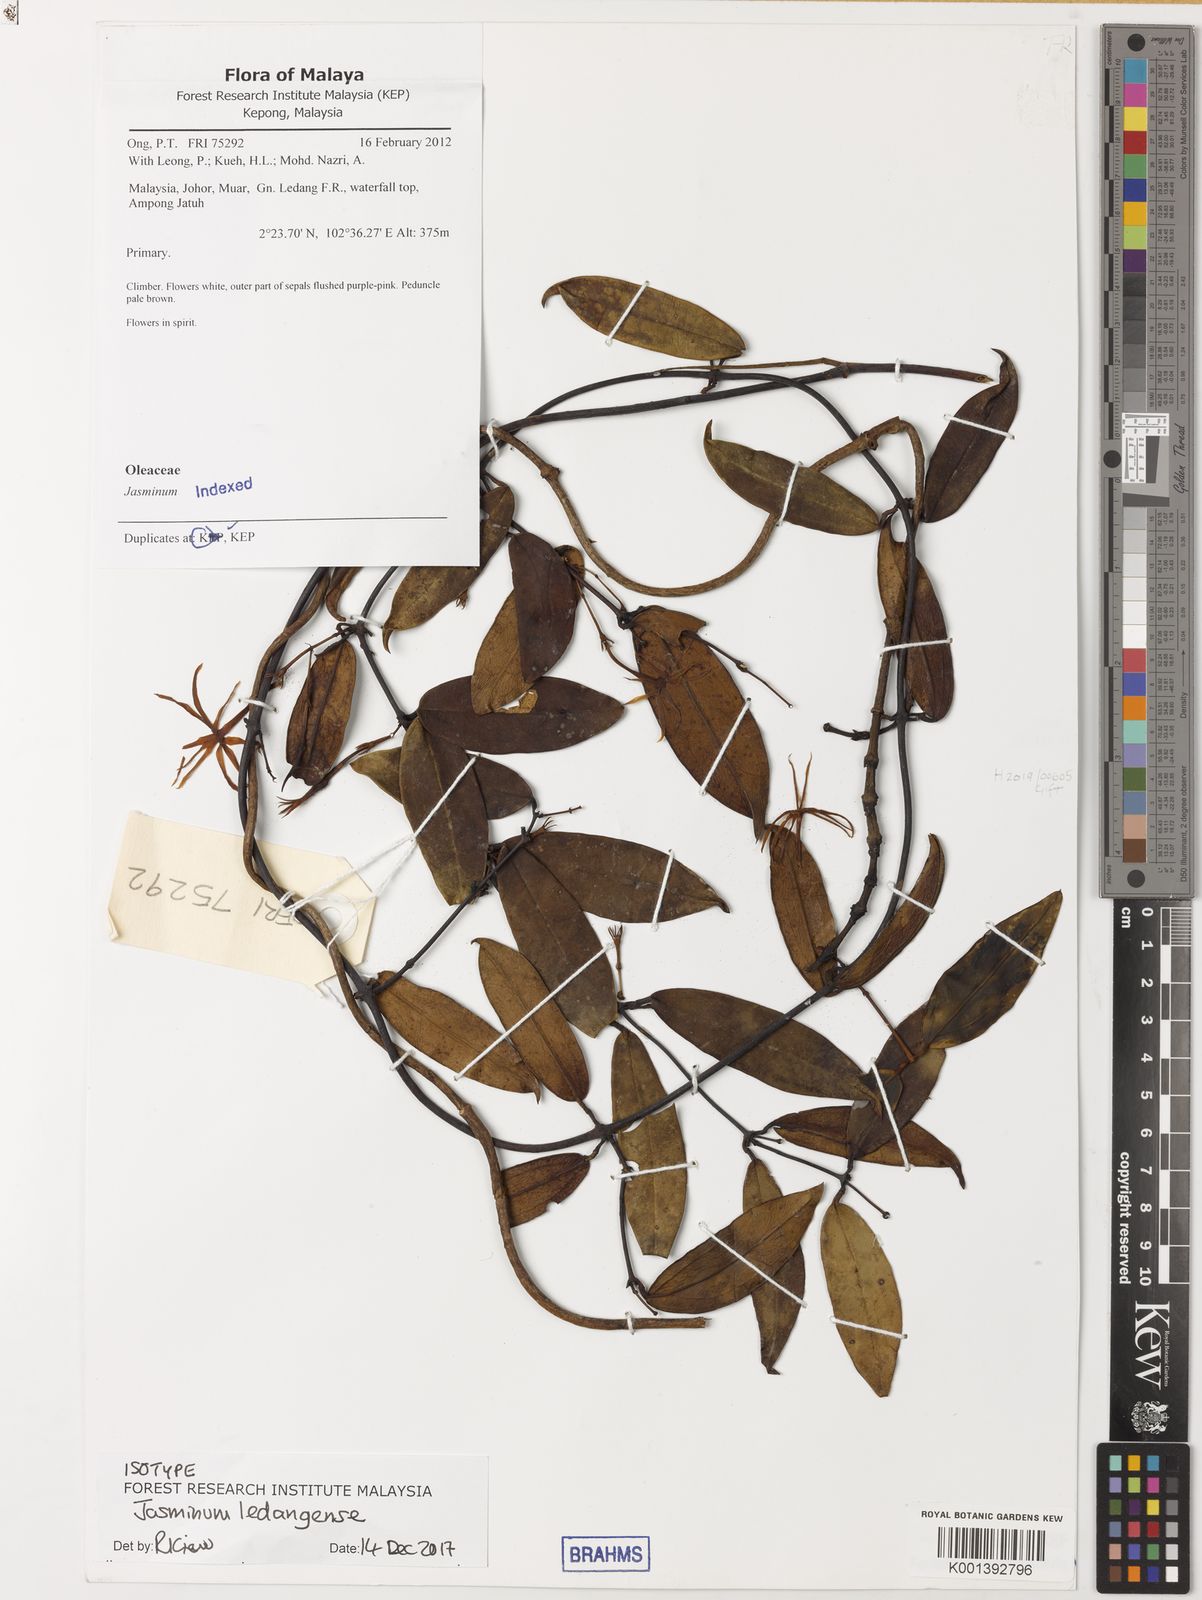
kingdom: Plantae
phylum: Tracheophyta
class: Magnoliopsida
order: Lamiales
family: Oleaceae
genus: Jasminum
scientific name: Jasminum ledangense
